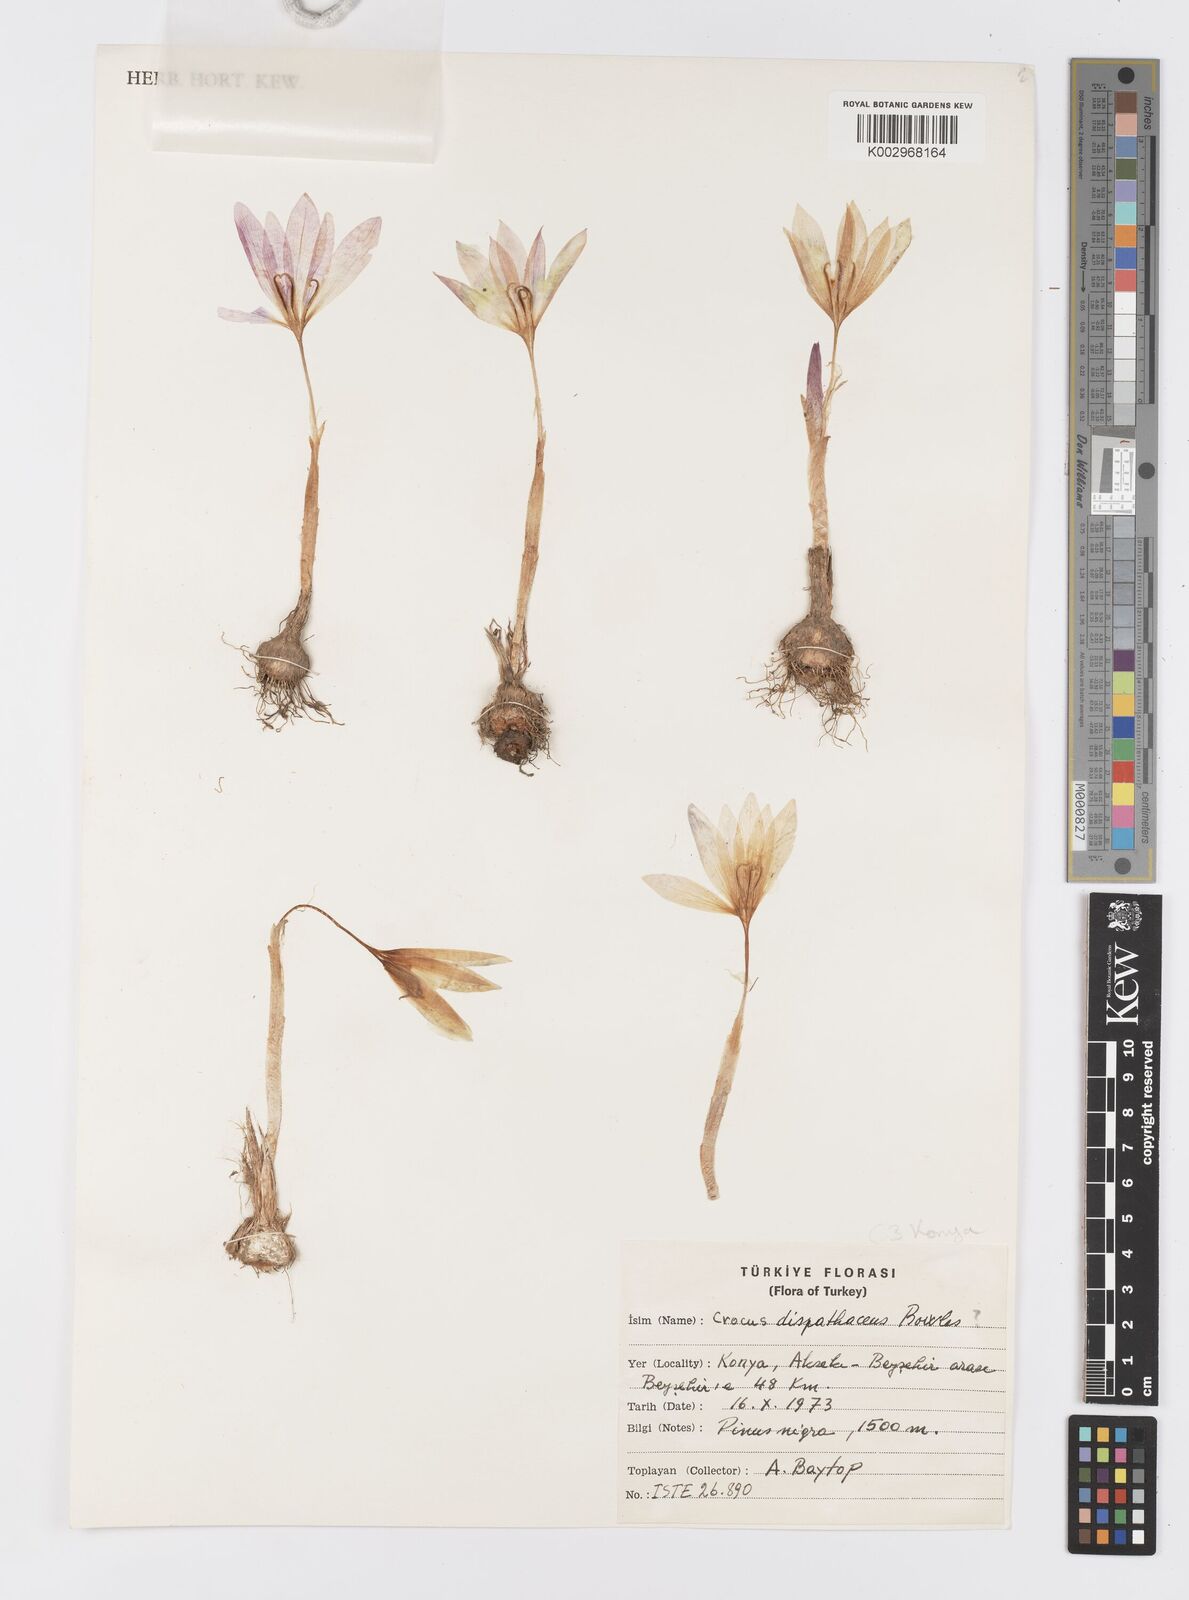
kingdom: Plantae
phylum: Tracheophyta
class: Liliopsida
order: Asparagales
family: Iridaceae
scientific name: Iridaceae
